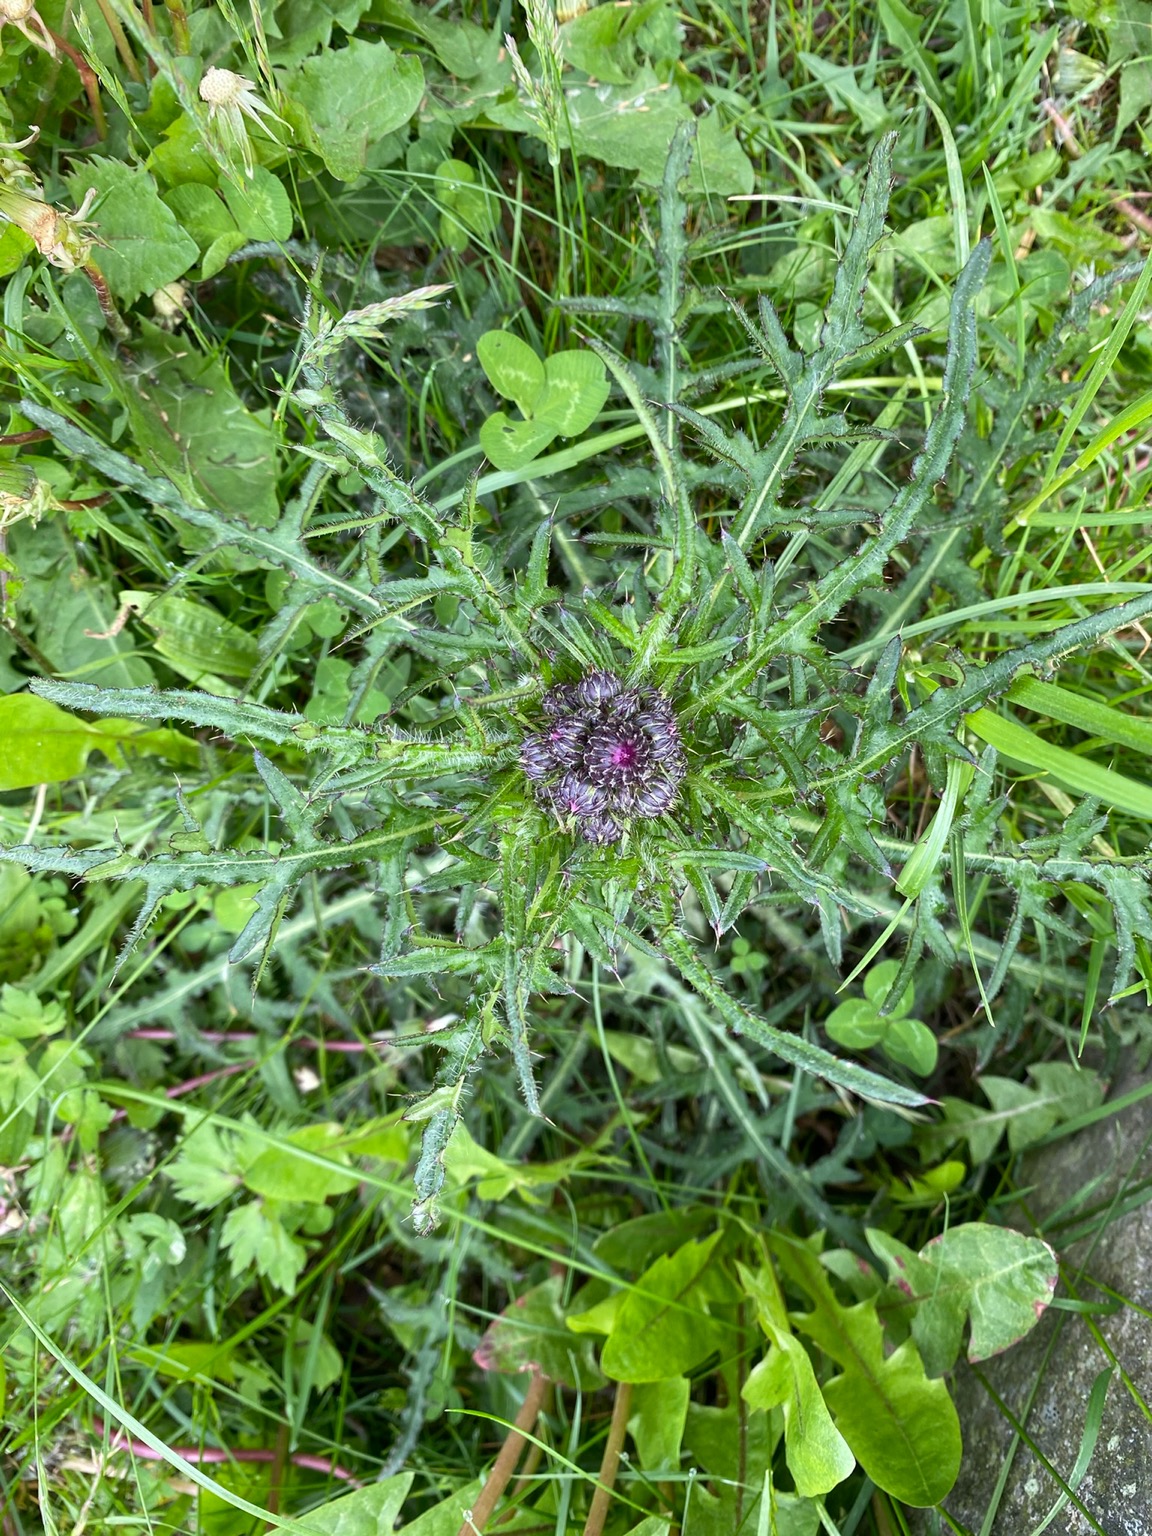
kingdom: Plantae
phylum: Tracheophyta
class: Magnoliopsida
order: Asterales
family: Asteraceae
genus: Cirsium
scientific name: Cirsium palustre
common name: Kær-tidsel
